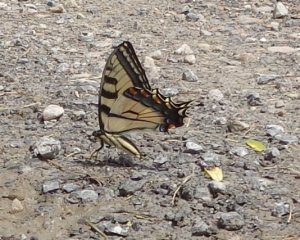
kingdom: Animalia
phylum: Arthropoda
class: Insecta
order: Lepidoptera
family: Papilionidae
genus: Pterourus
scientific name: Pterourus
